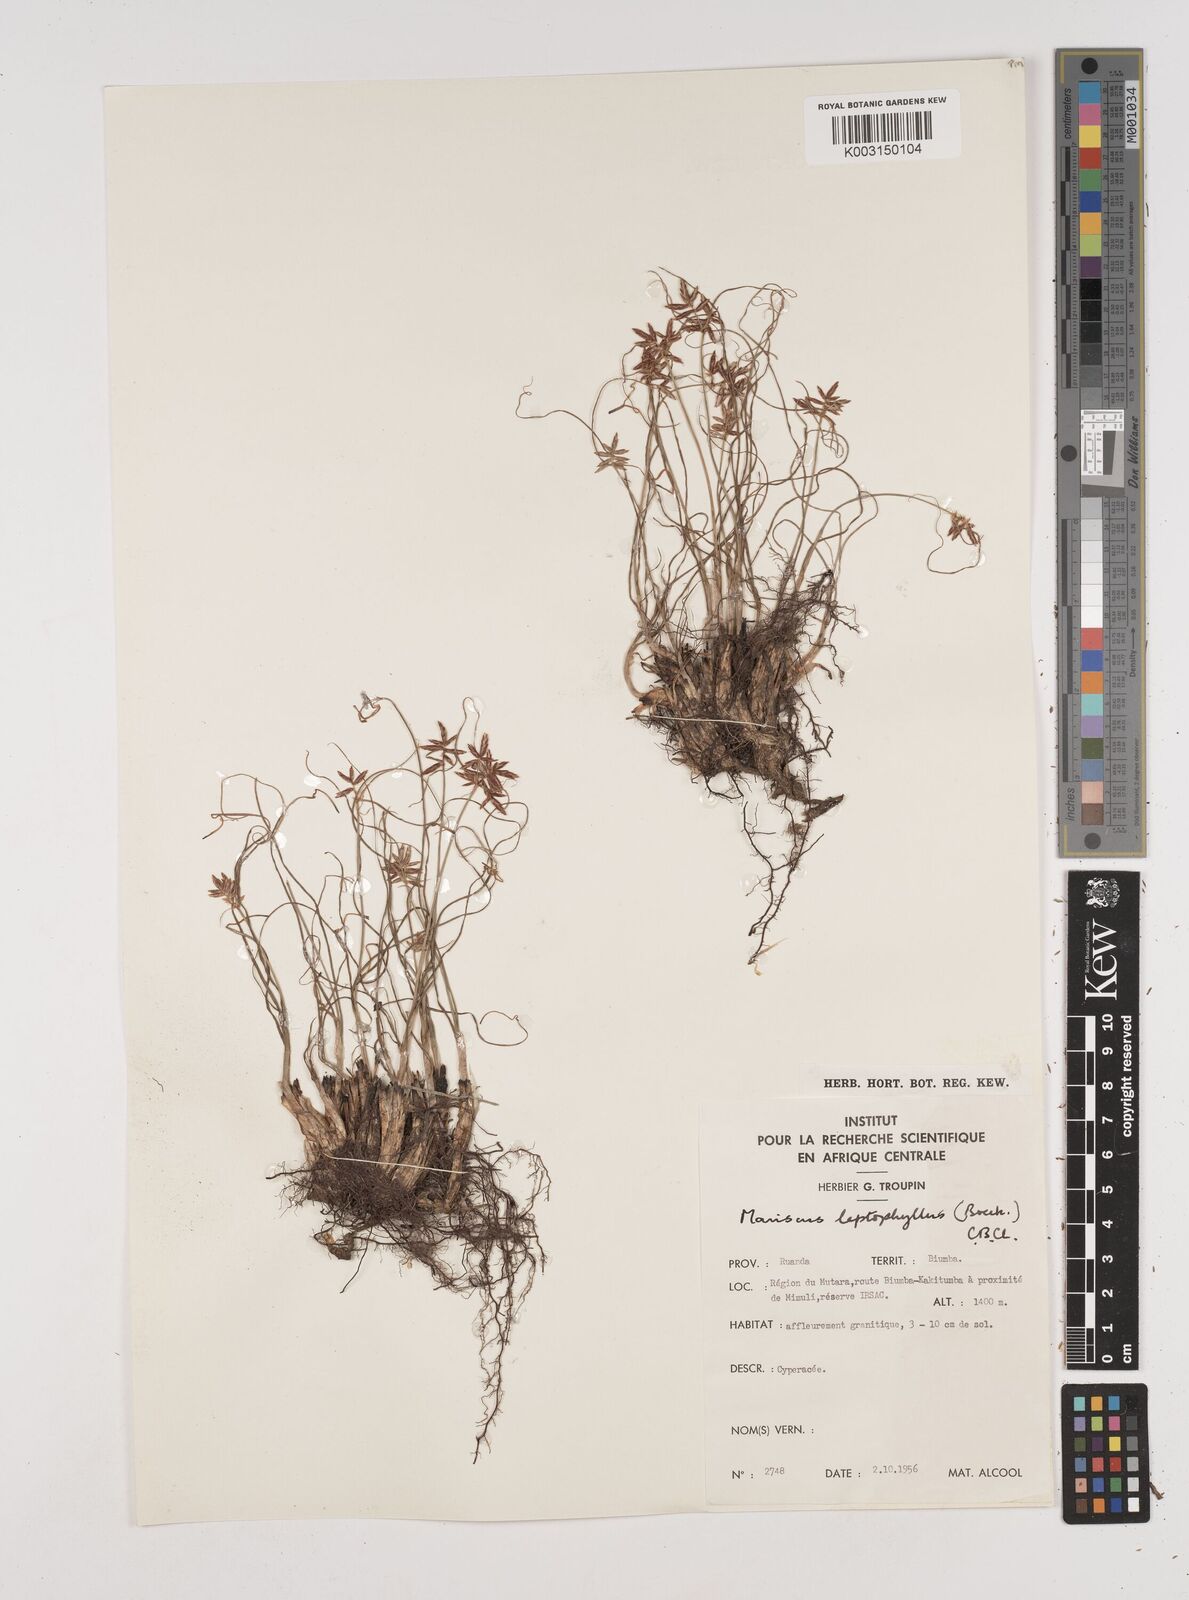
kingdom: Plantae
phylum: Tracheophyta
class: Liliopsida
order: Poales
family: Cyperaceae
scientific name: Cyperaceae
